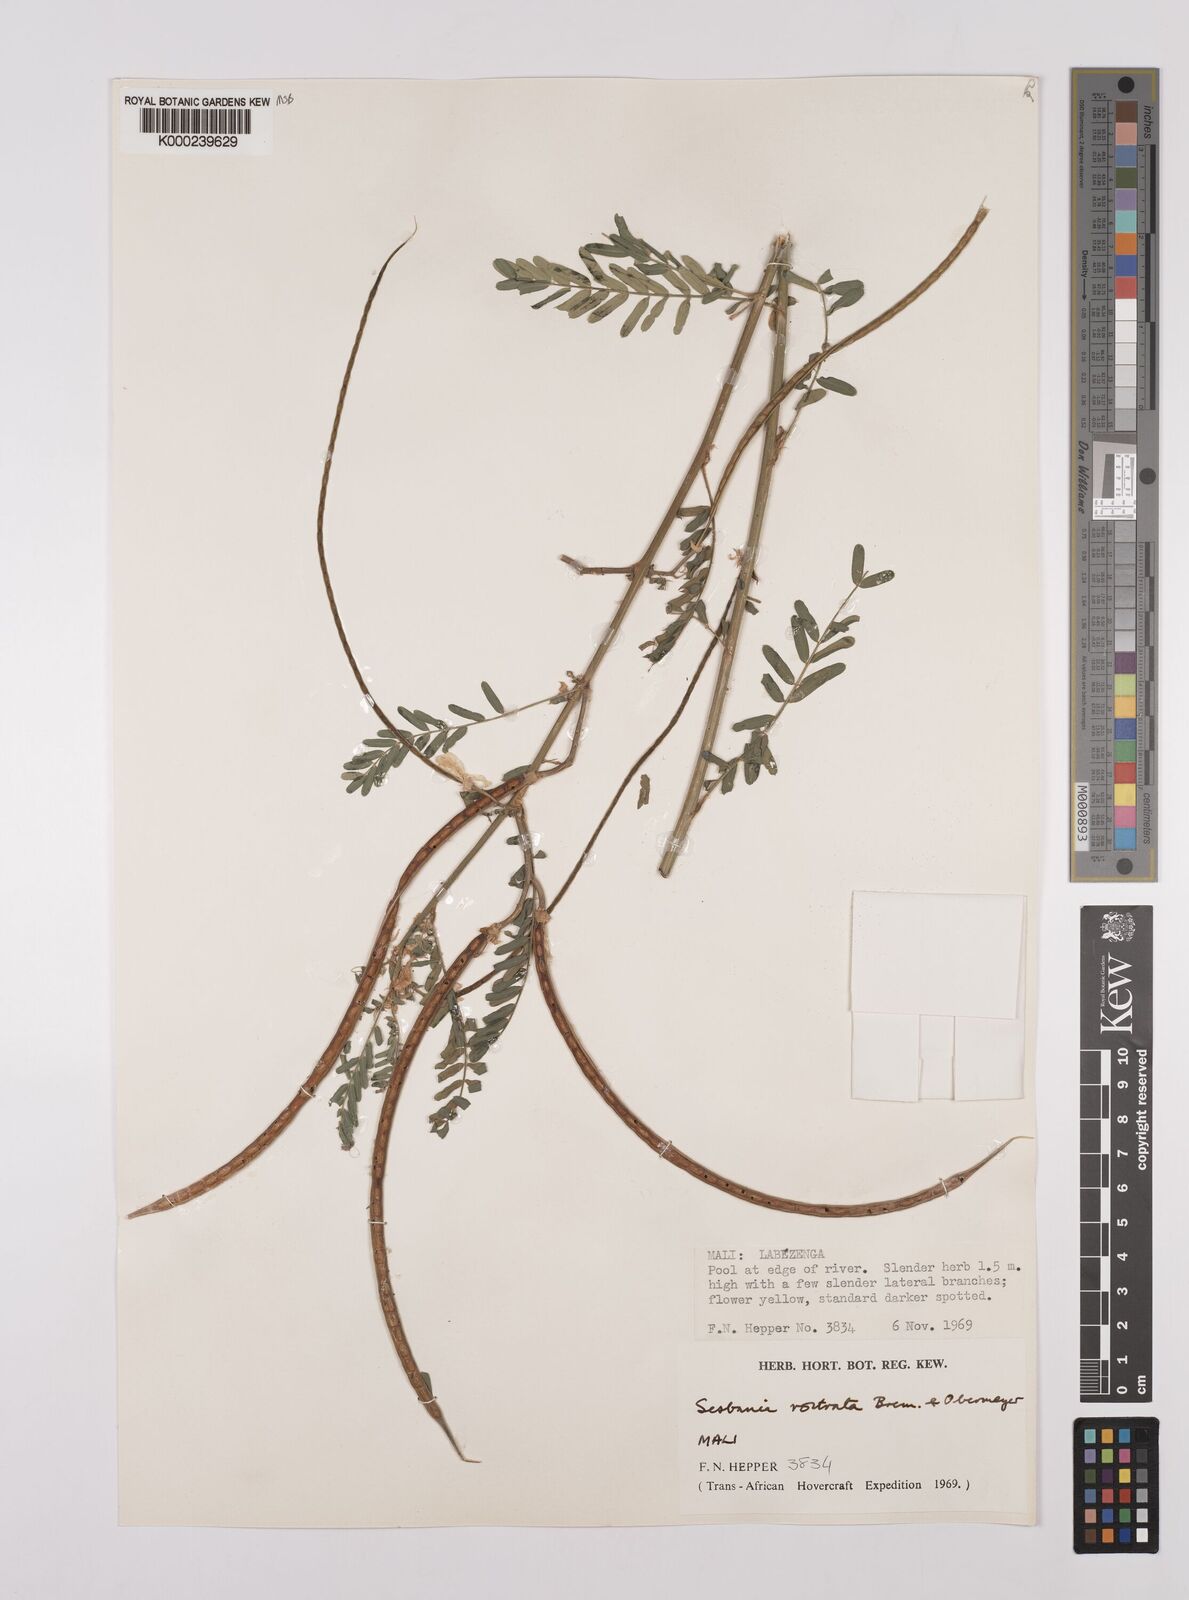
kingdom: Plantae
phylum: Tracheophyta
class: Magnoliopsida
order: Fabales
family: Fabaceae
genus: Sesbania
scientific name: Sesbania rostrata
